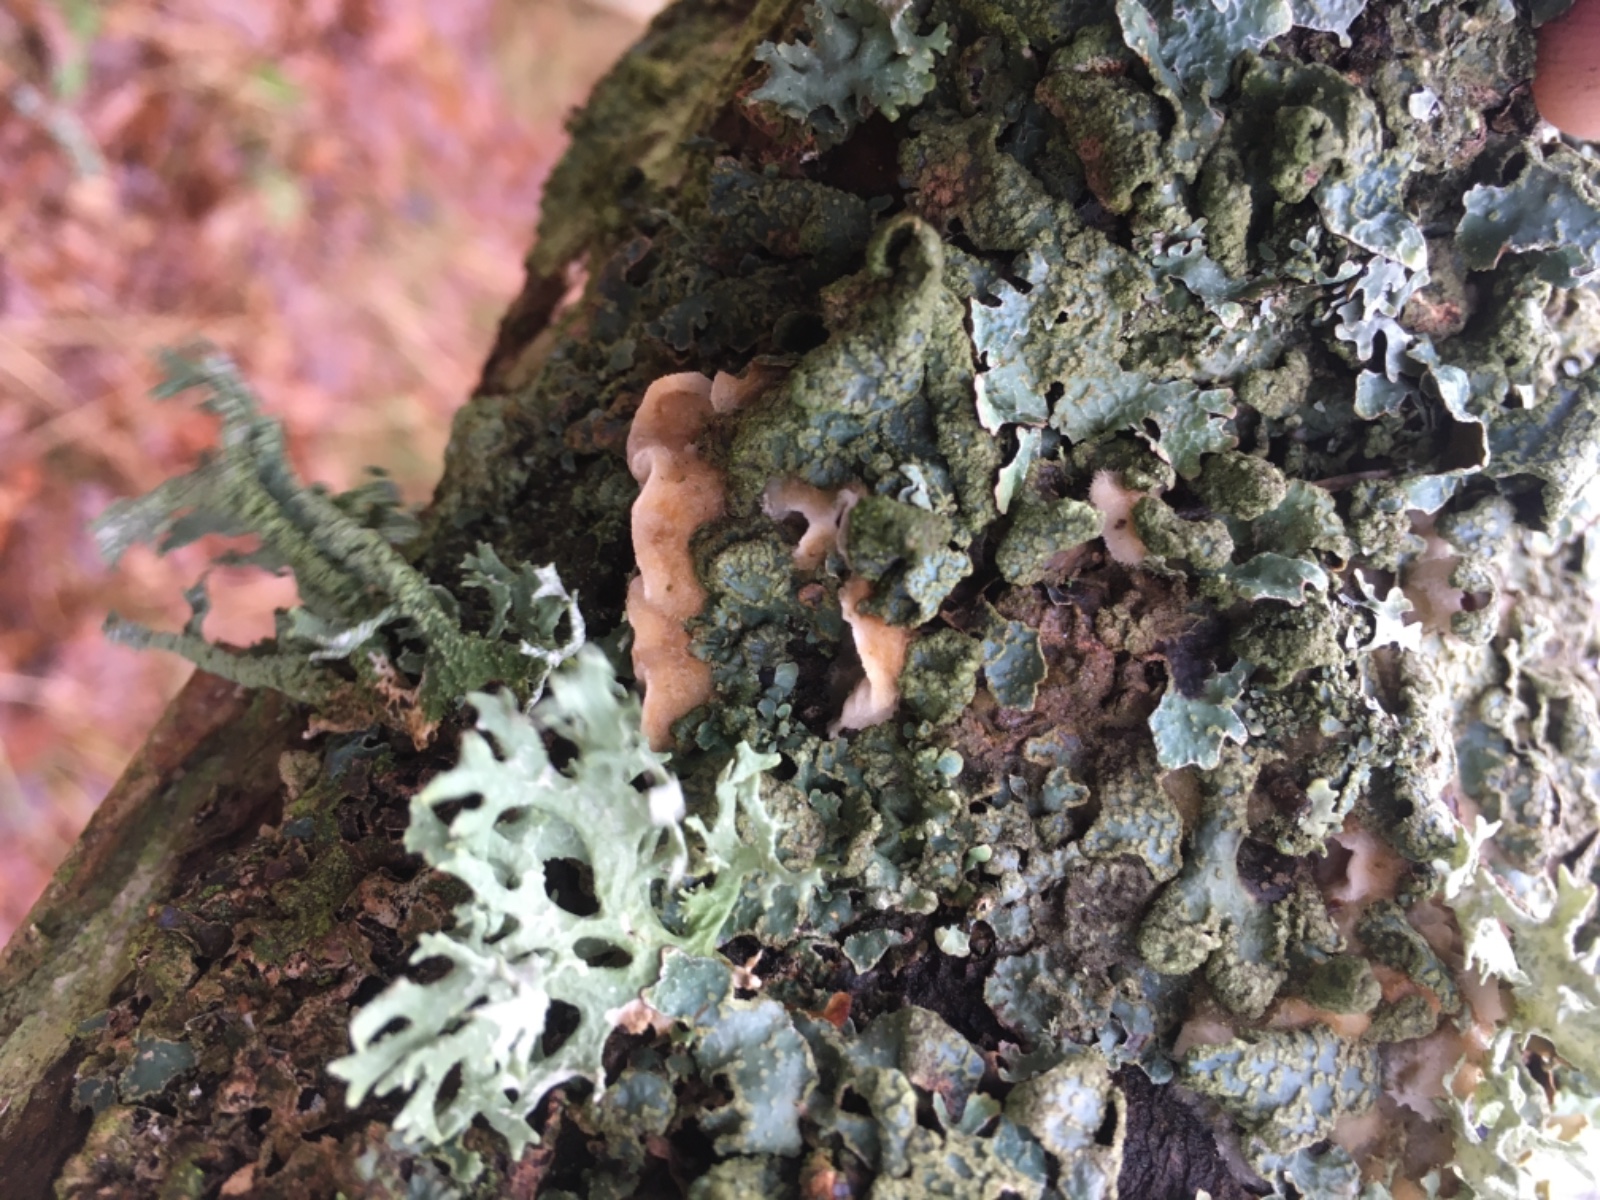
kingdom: Fungi
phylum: Basidiomycota
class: Agaricomycetes
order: Polyporales
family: Irpicaceae
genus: Vitreoporus
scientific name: Vitreoporus dichrous
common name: tofarvet foldporesvamp
